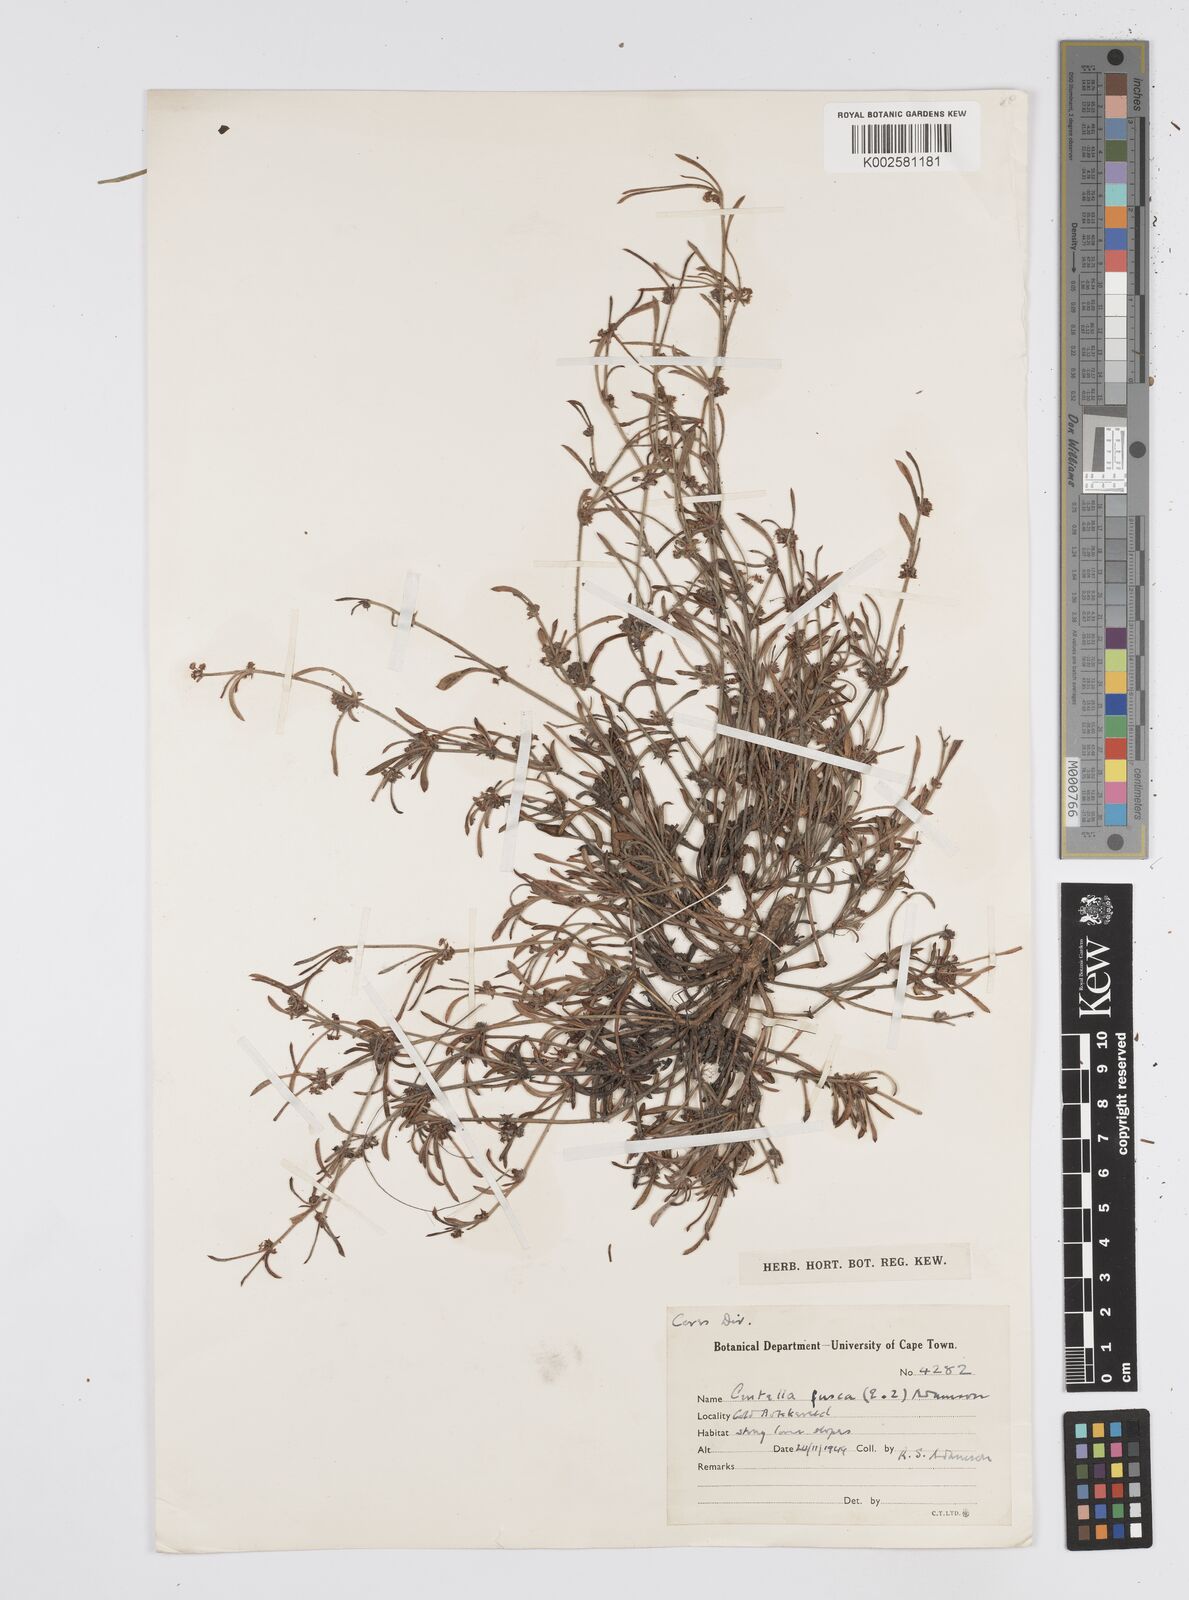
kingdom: Plantae
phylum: Tracheophyta
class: Magnoliopsida
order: Apiales
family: Apiaceae
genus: Centella
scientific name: Centella fusca
